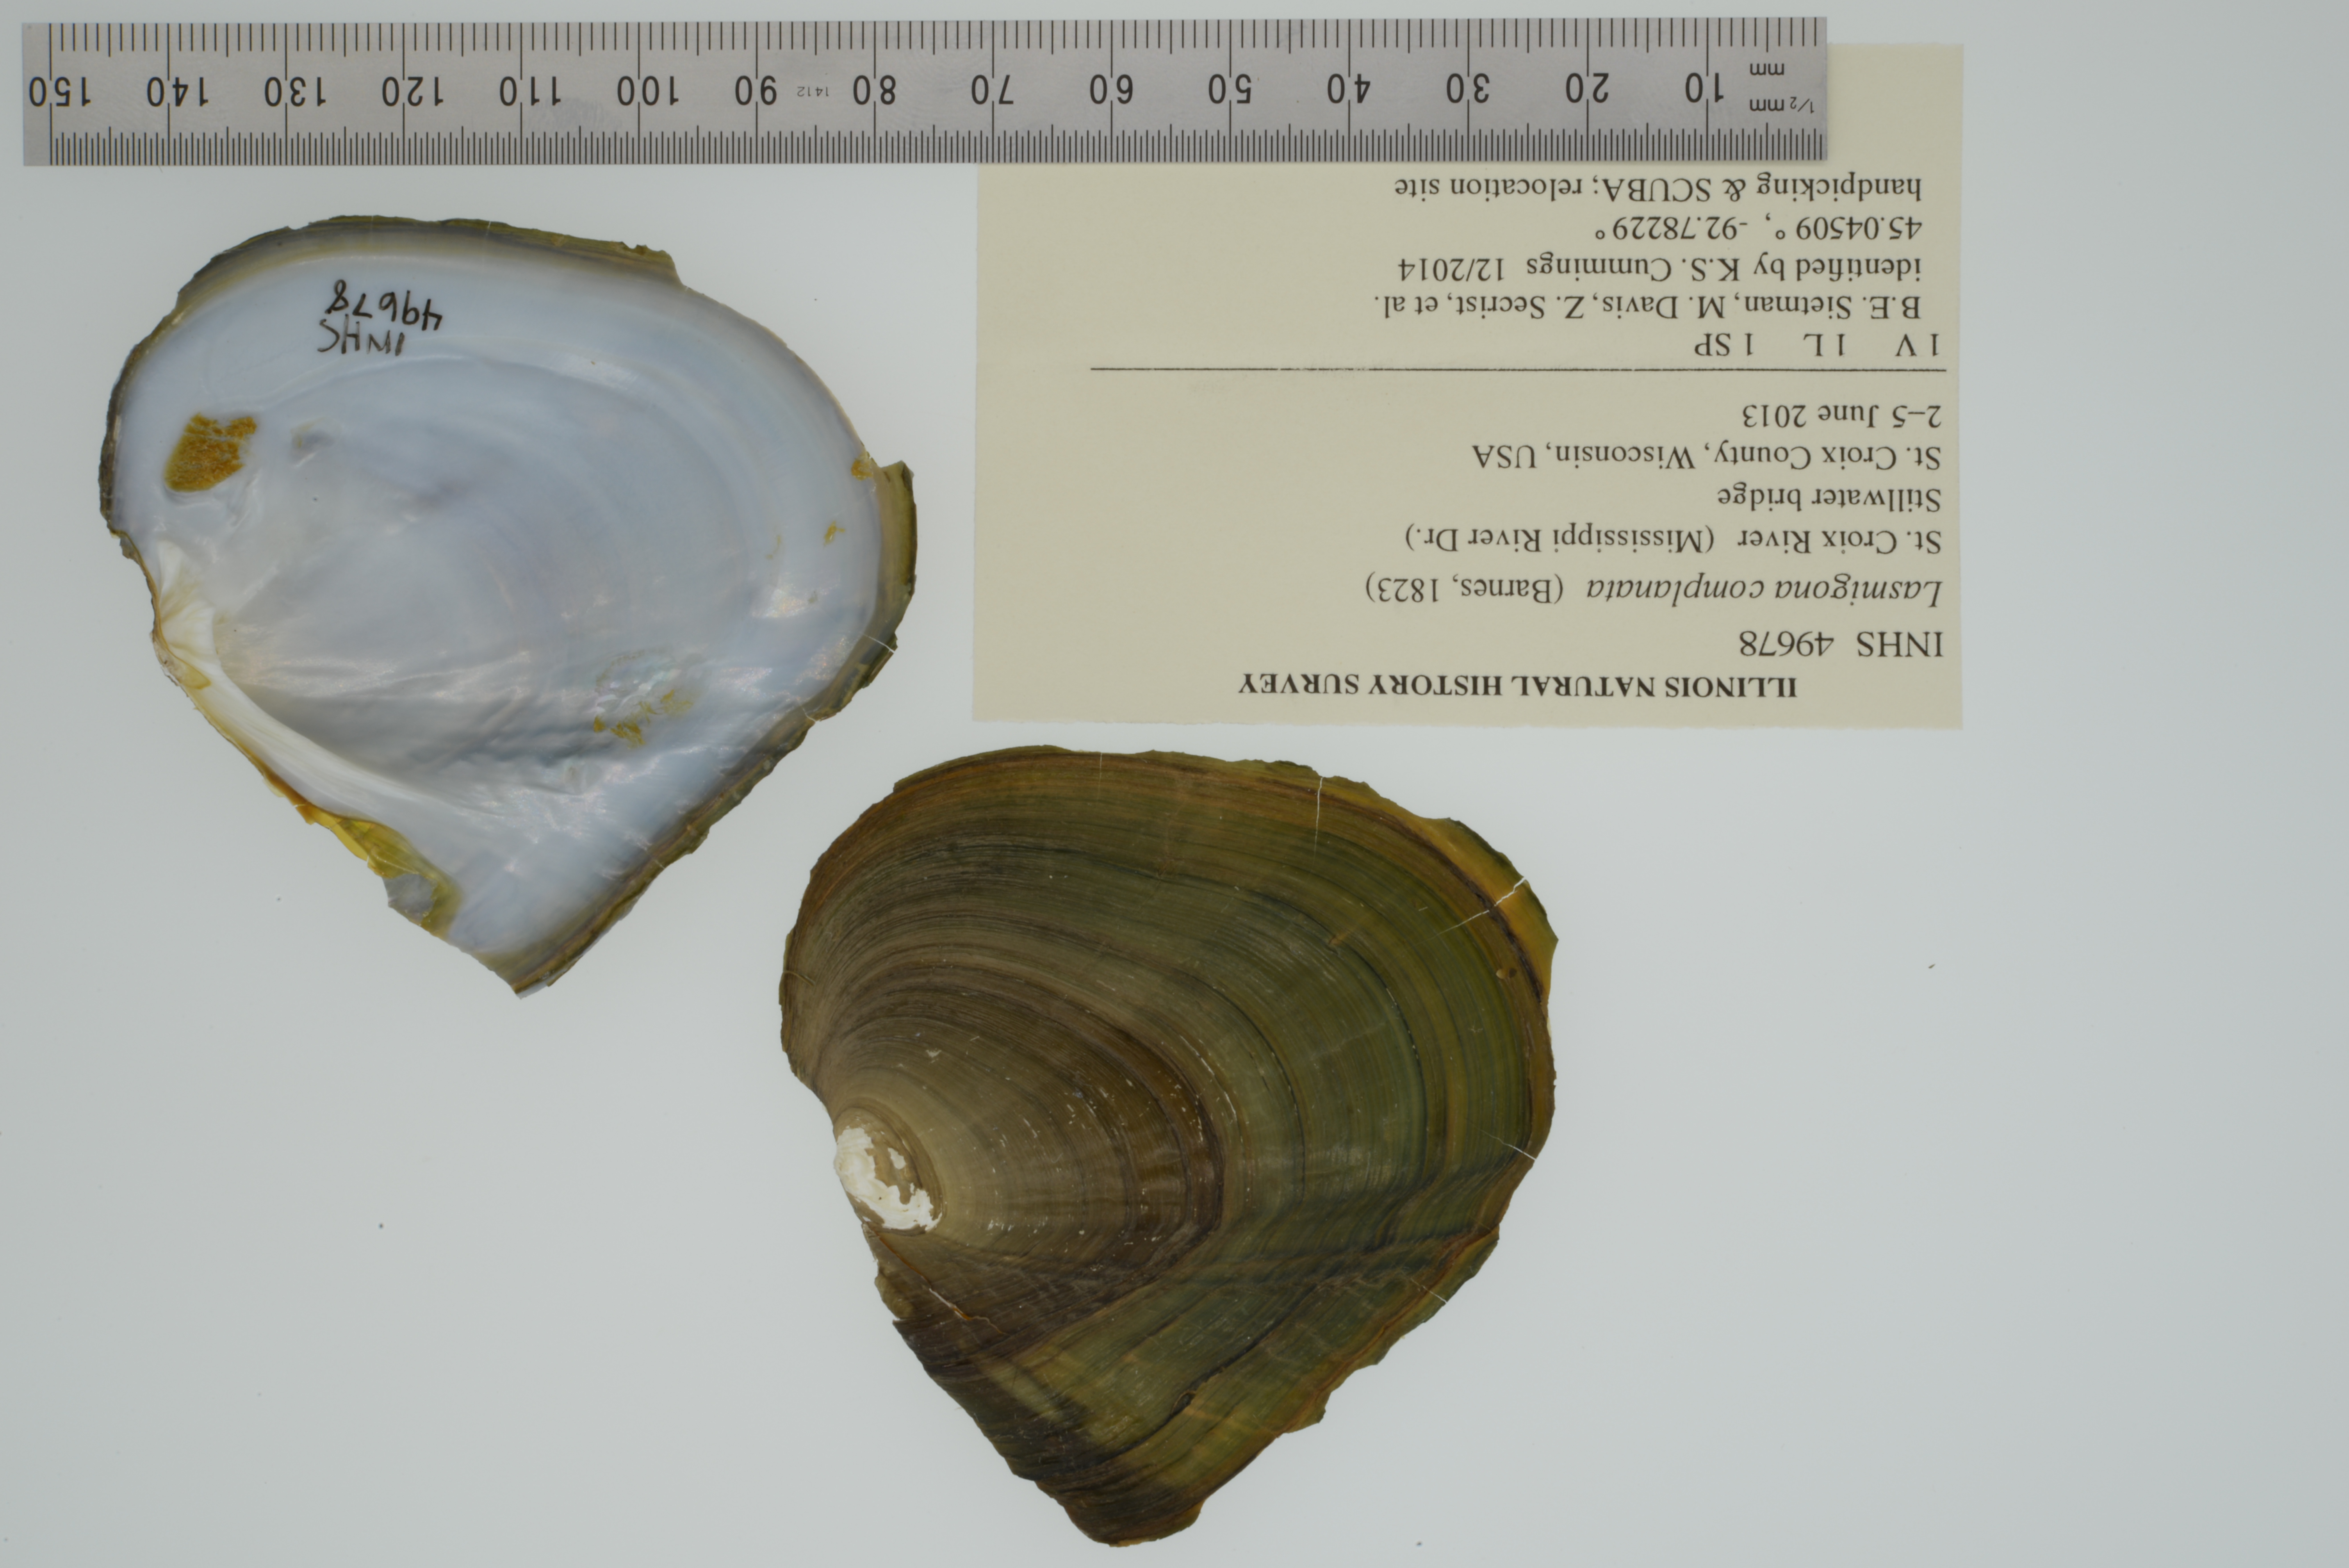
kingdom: Animalia
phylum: Mollusca
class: Bivalvia
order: Unionida
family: Unionidae
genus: Lasmigona
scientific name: Lasmigona complanata
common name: White heelsplitter
